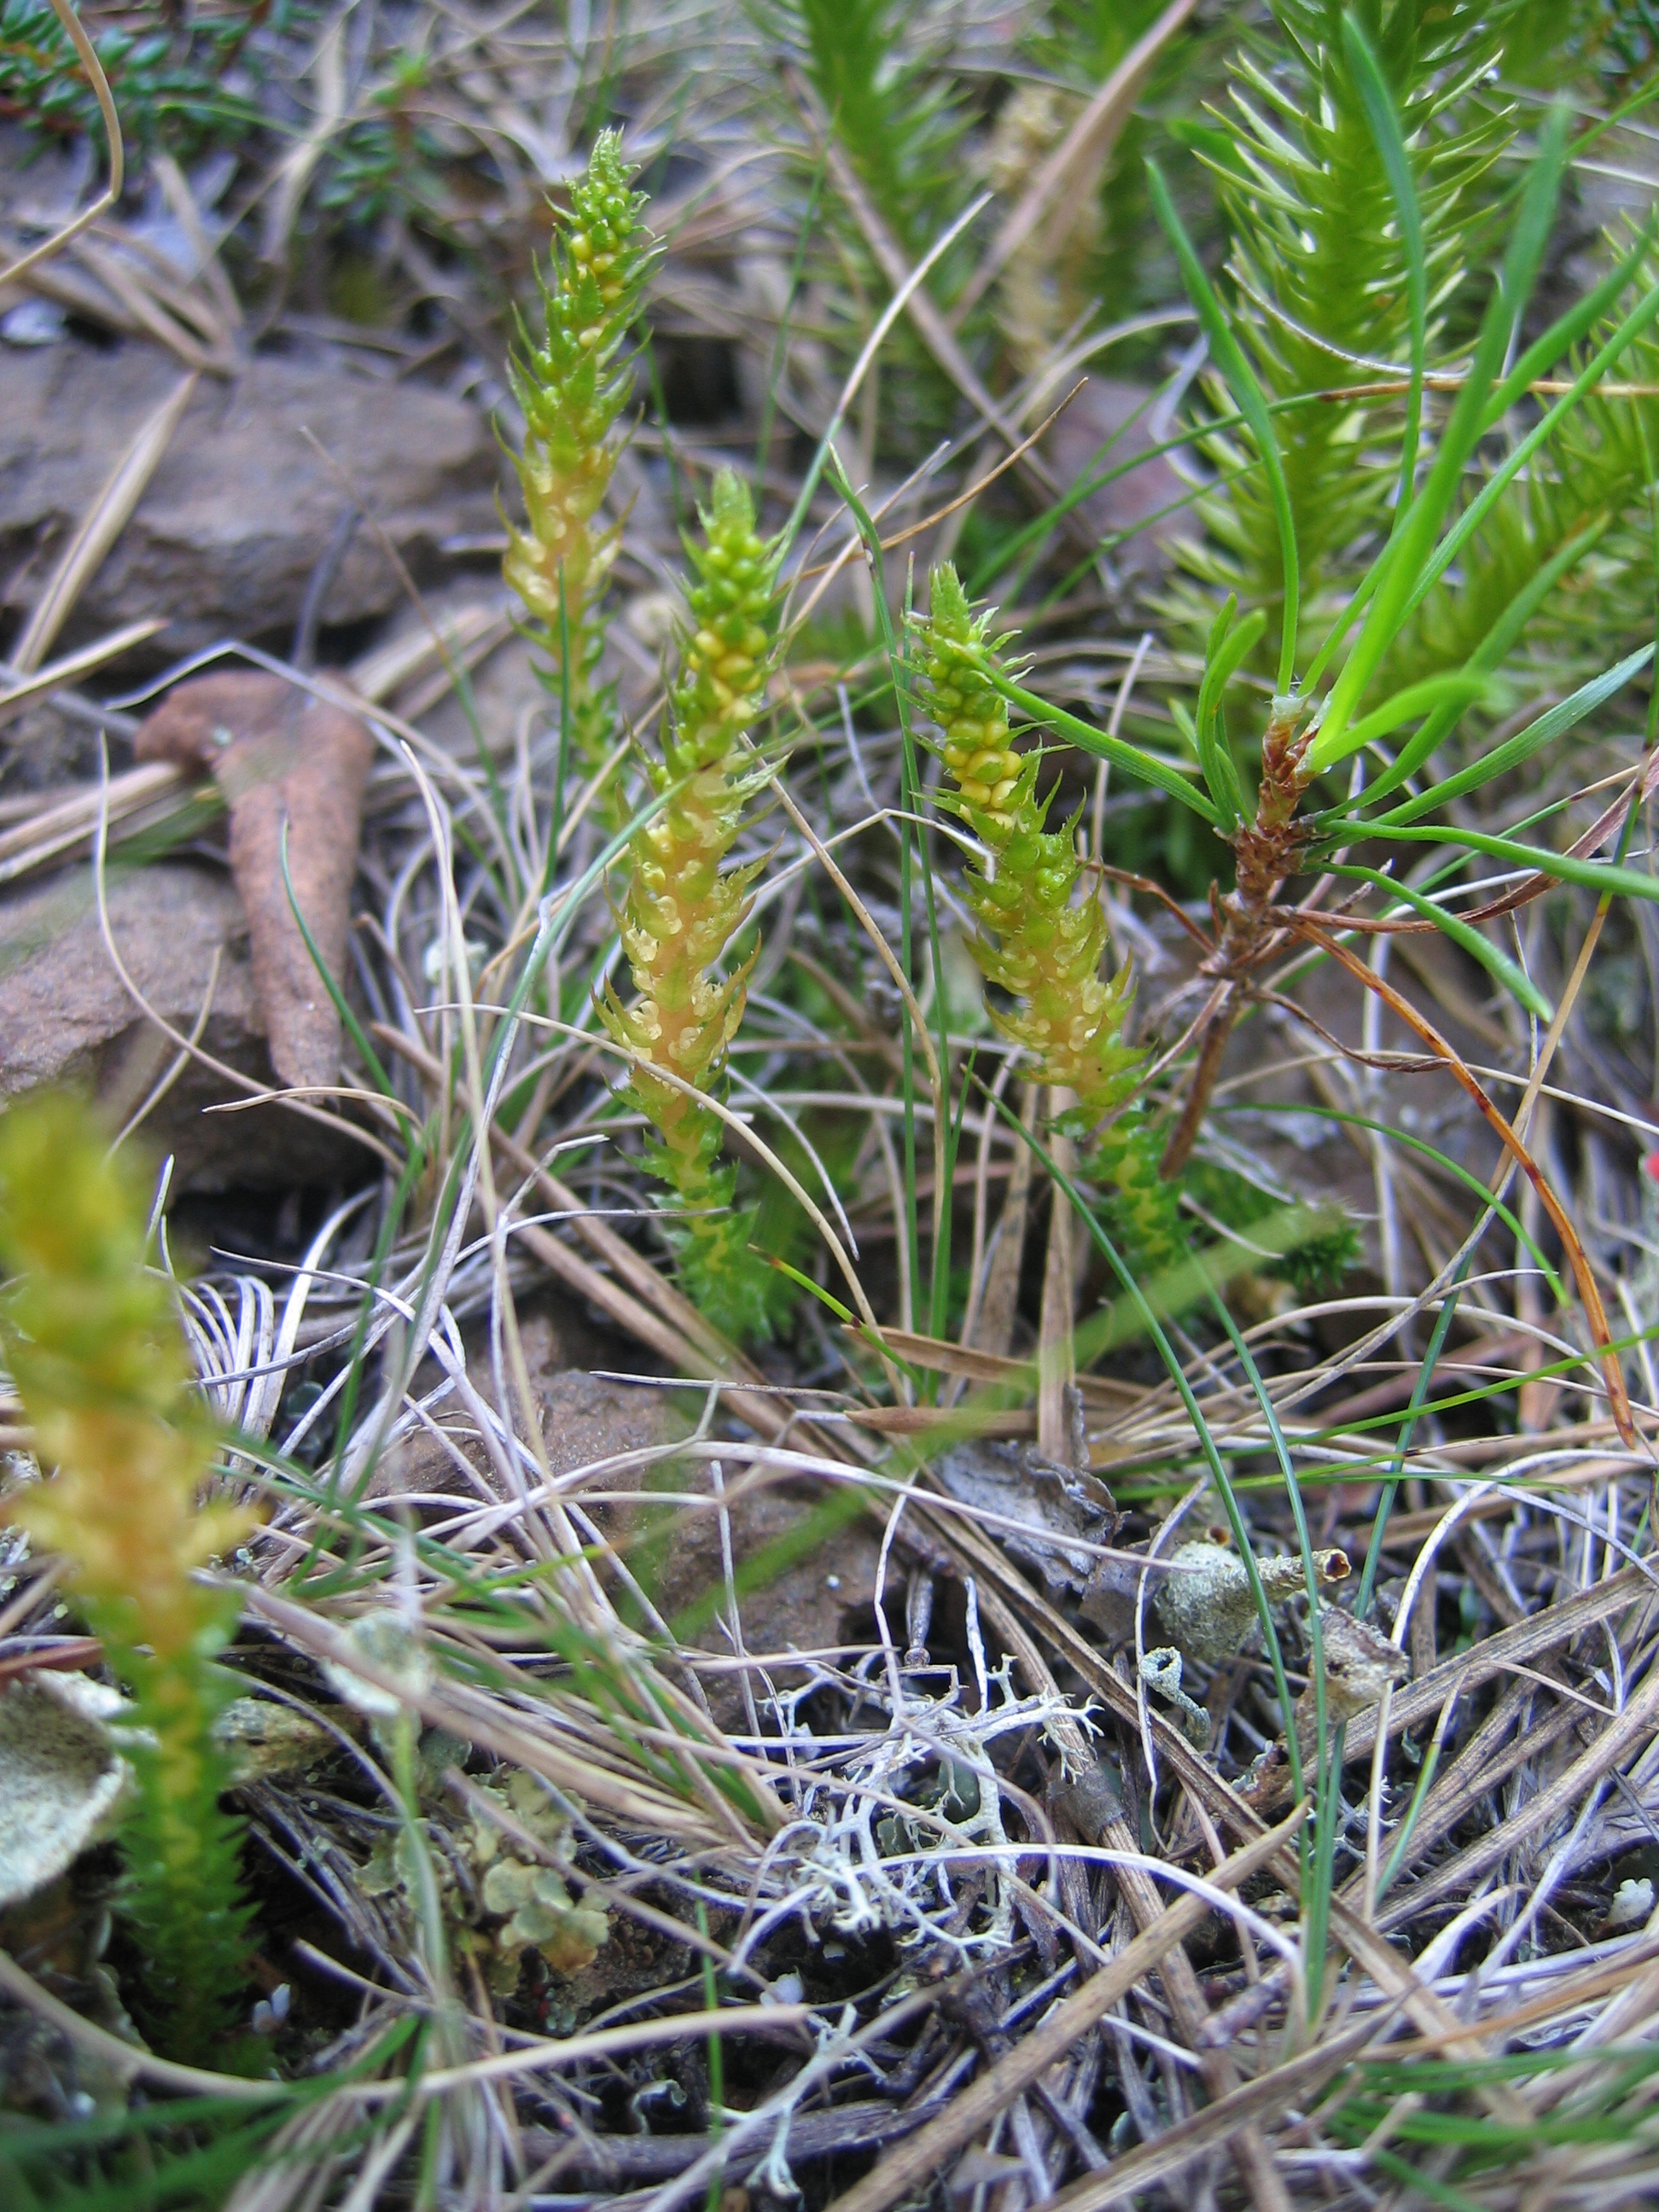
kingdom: Plantae
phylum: Tracheophyta
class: Lycopodiopsida
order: Selaginellales
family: Selaginellaceae
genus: Selaginella
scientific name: Selaginella selaginoides
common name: Prickly mountain-moss
